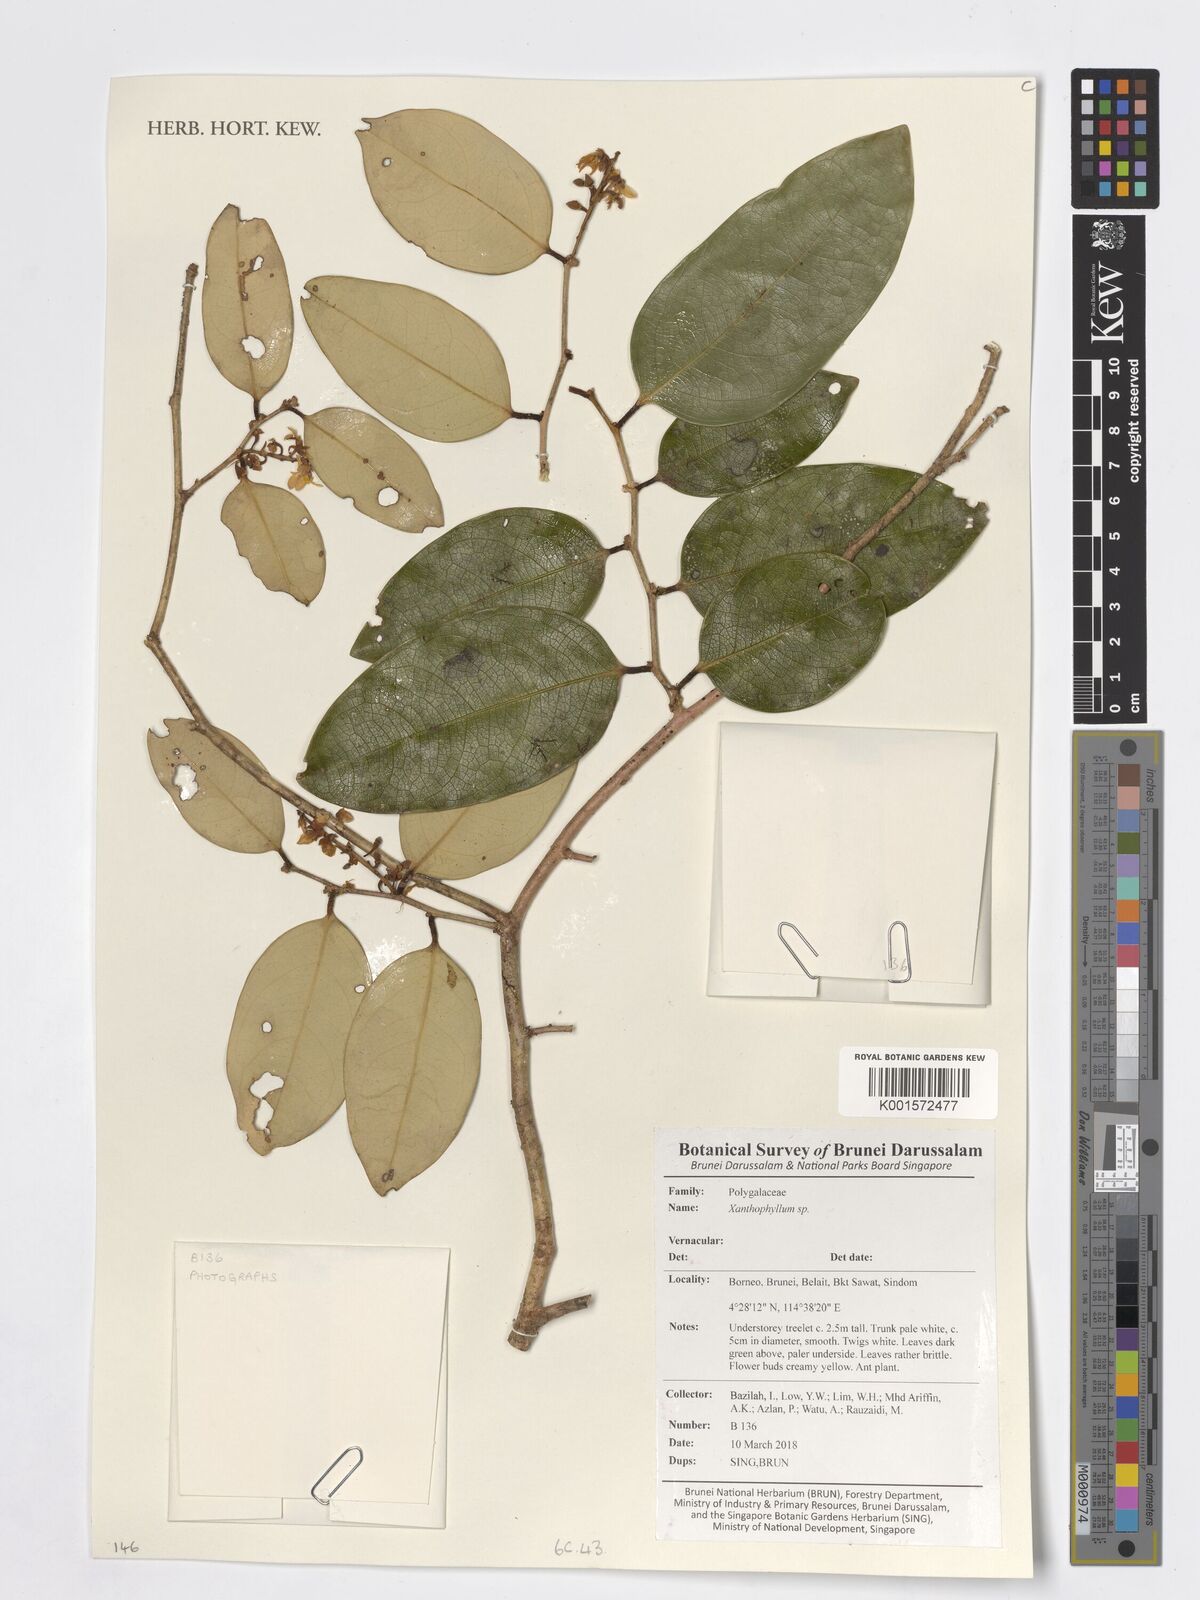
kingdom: Plantae
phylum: Tracheophyta
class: Magnoliopsida
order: Fabales
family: Polygalaceae
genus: Xanthophyllum
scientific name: Xanthophyllum
